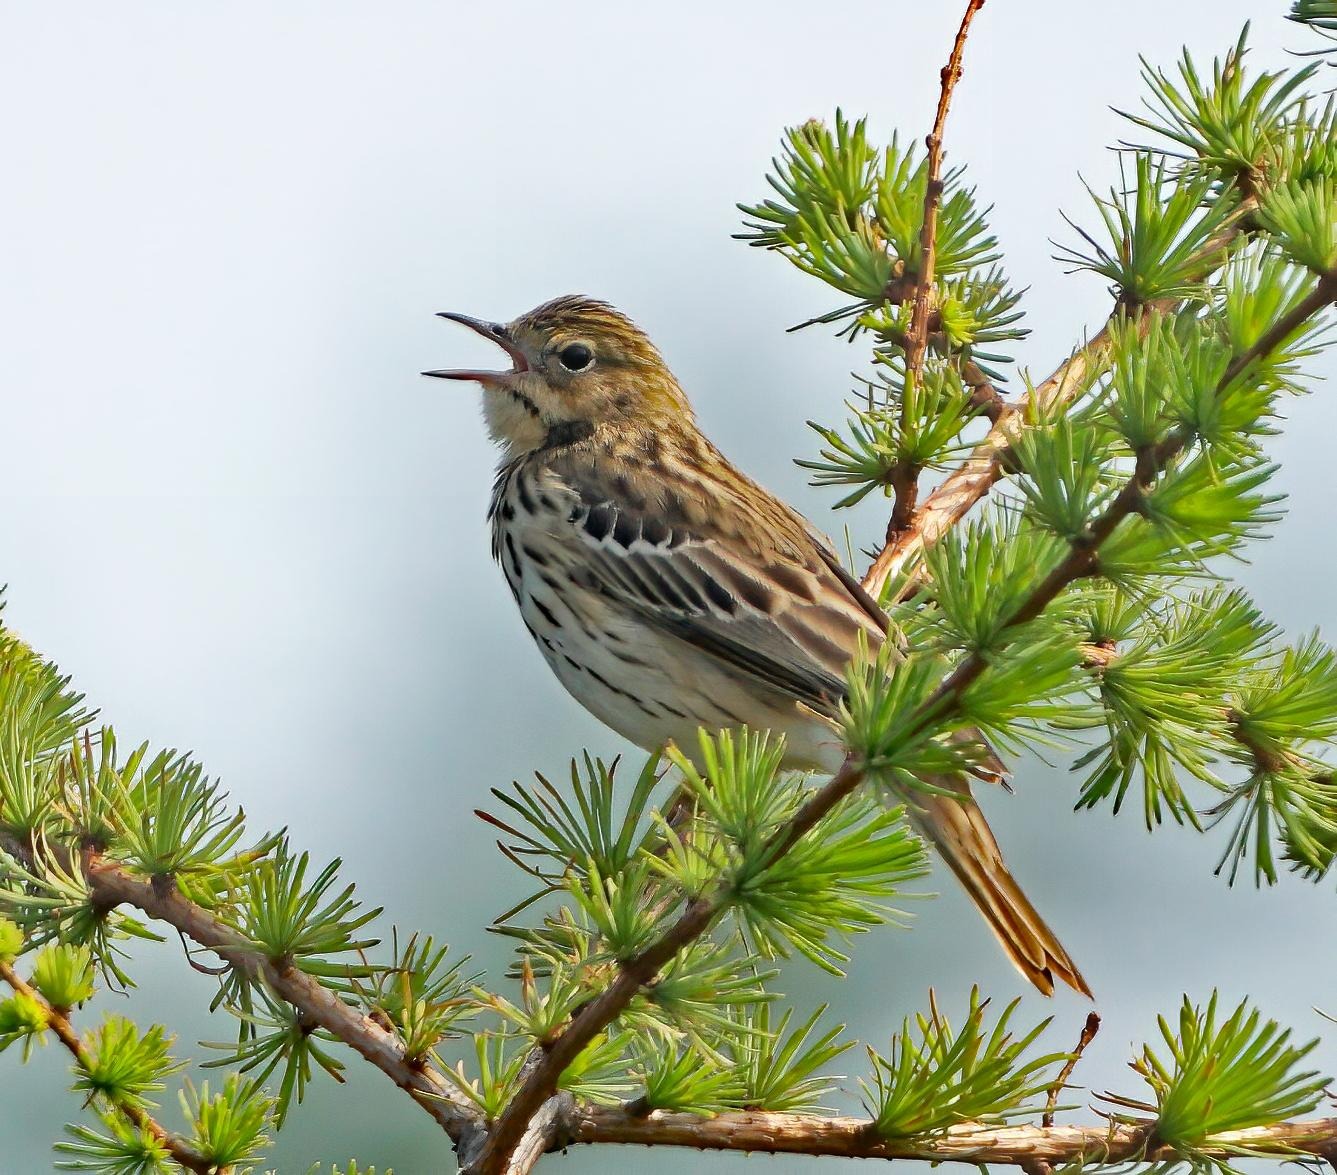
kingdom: Animalia
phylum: Chordata
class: Aves
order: Passeriformes
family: Motacillidae
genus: Anthus
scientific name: Anthus trivialis
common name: Skovpiber
